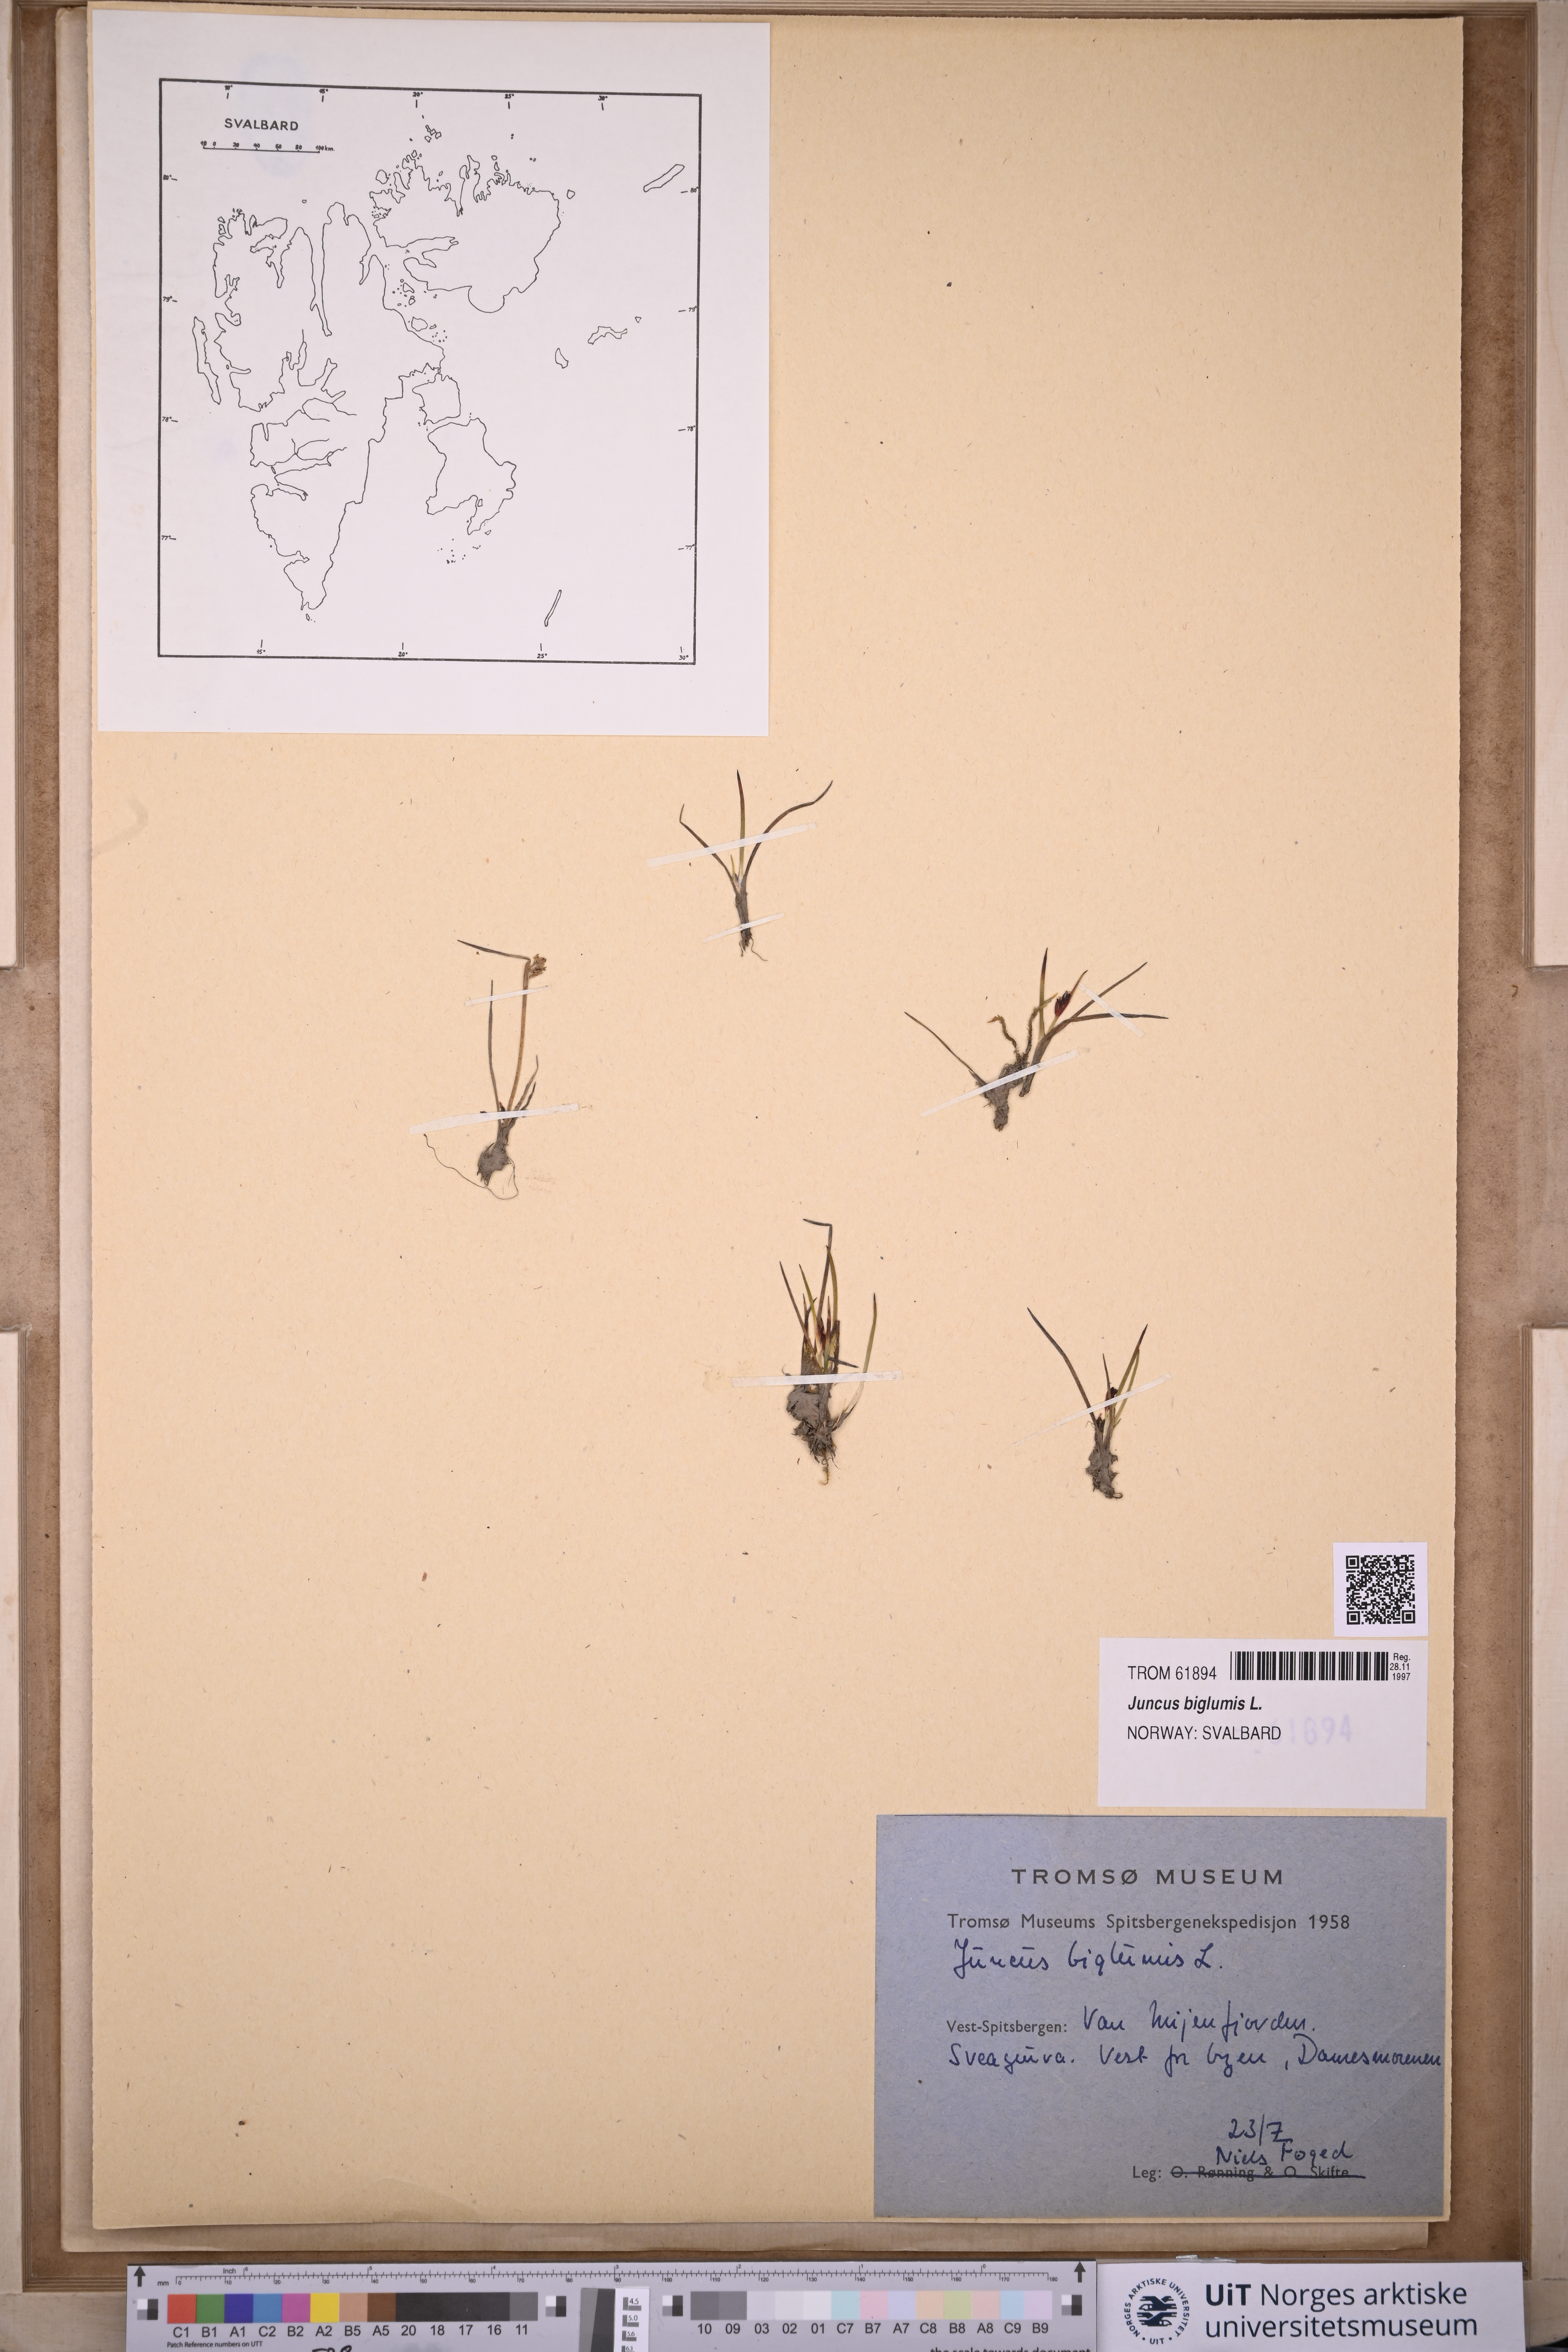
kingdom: Plantae
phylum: Tracheophyta
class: Liliopsida
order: Poales
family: Juncaceae
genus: Juncus
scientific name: Juncus biglumis
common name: Two-flowered rush
